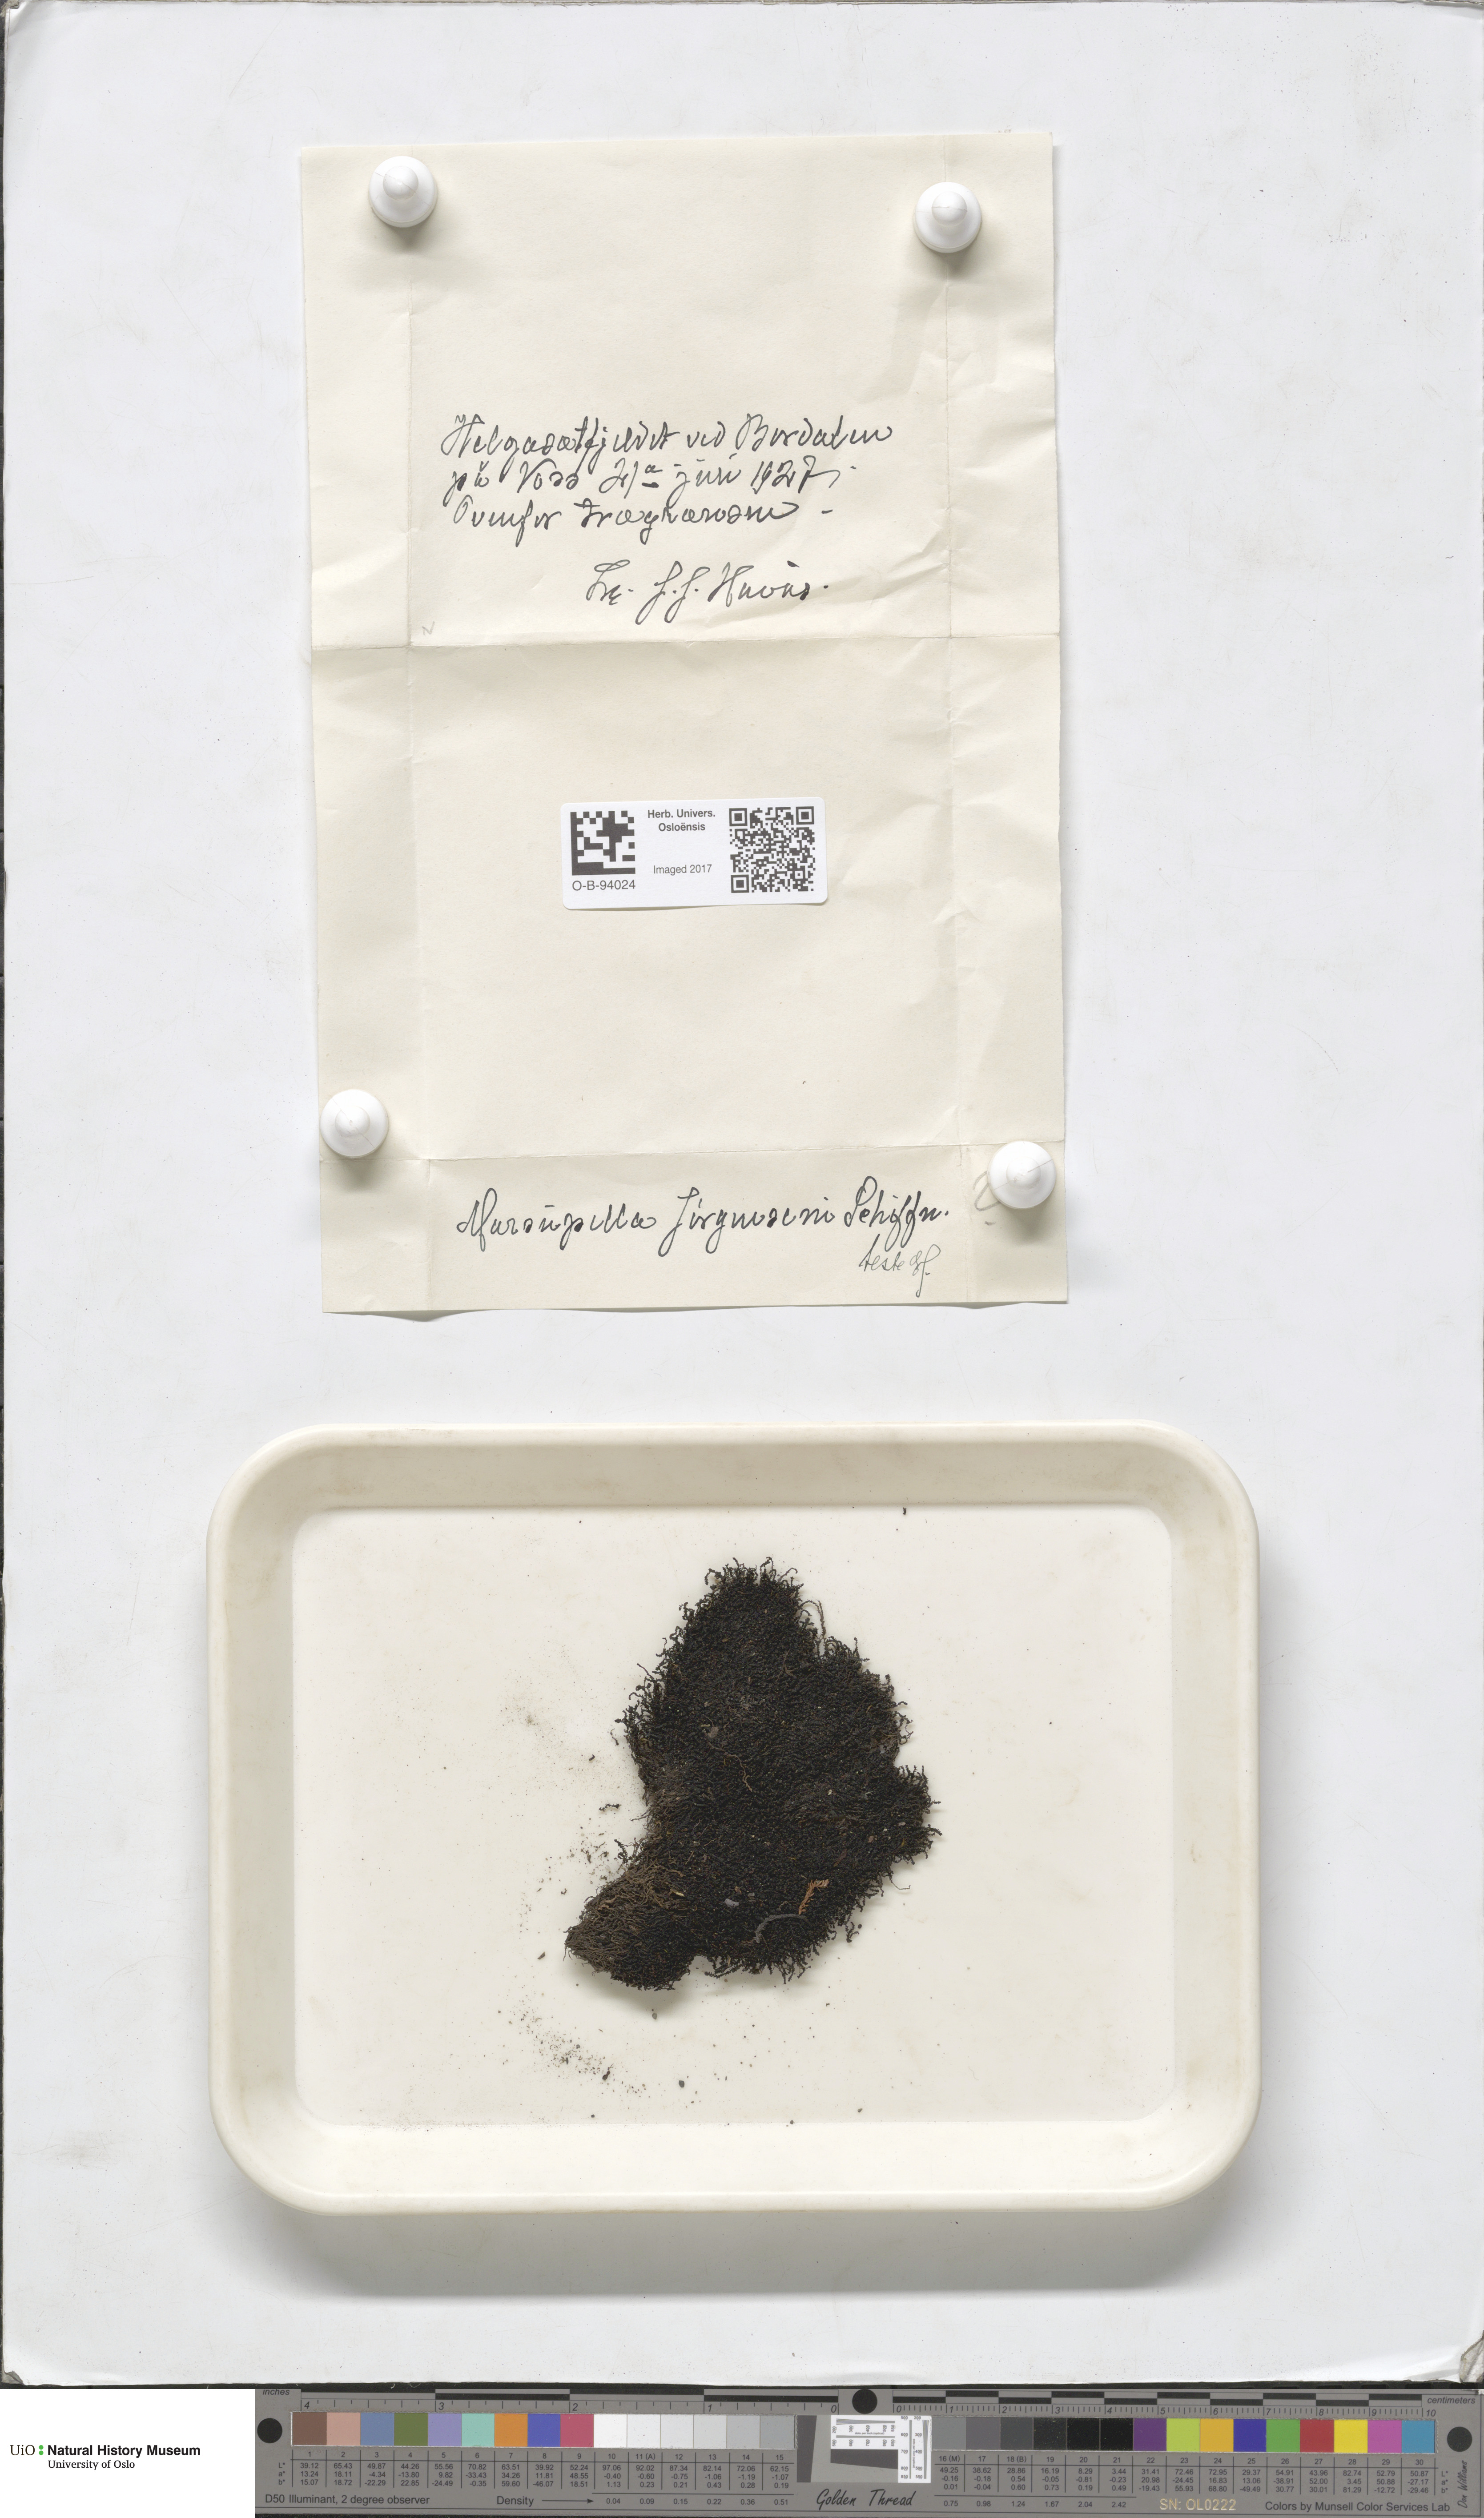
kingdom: Plantae
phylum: Marchantiophyta
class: Jungermanniopsida
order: Jungermanniales
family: Gymnomitriaceae
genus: Marsupella
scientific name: Marsupella sphacelata
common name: Speckled rustwort
